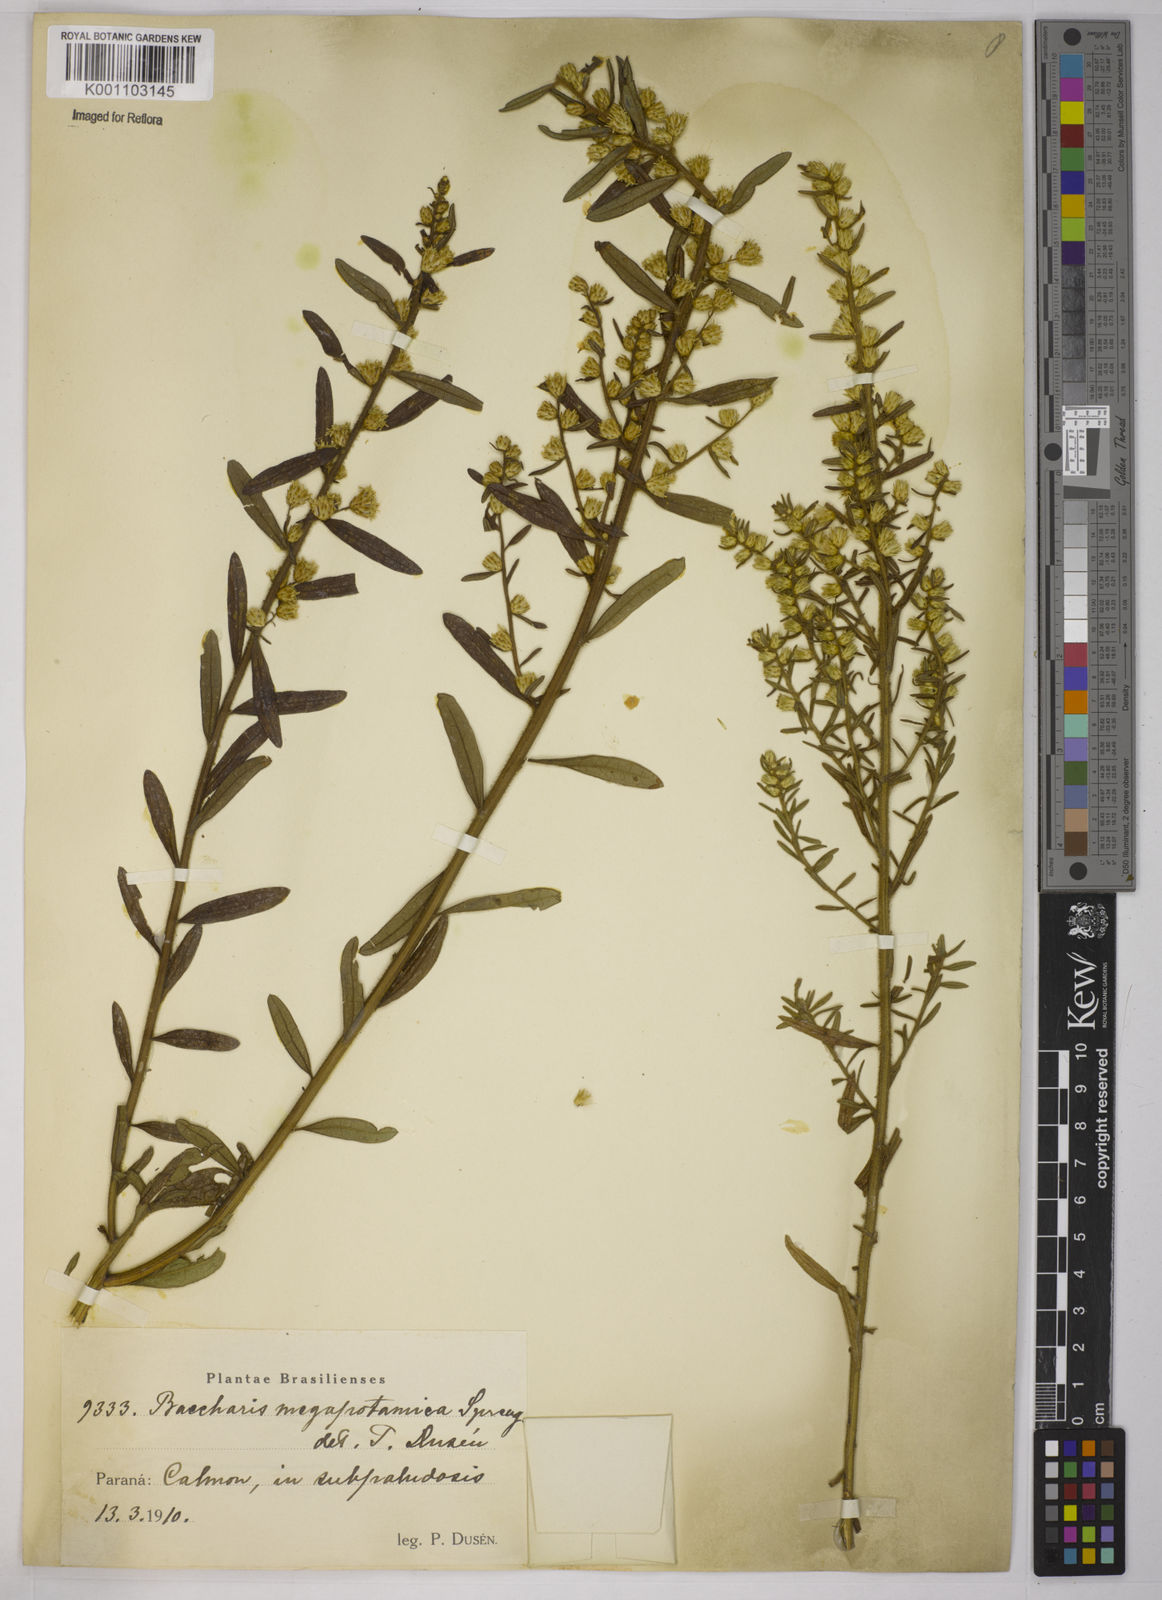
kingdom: Plantae
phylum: Tracheophyta
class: Magnoliopsida
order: Asterales
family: Asteraceae
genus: Baccharis
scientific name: Baccharis megapotamica
